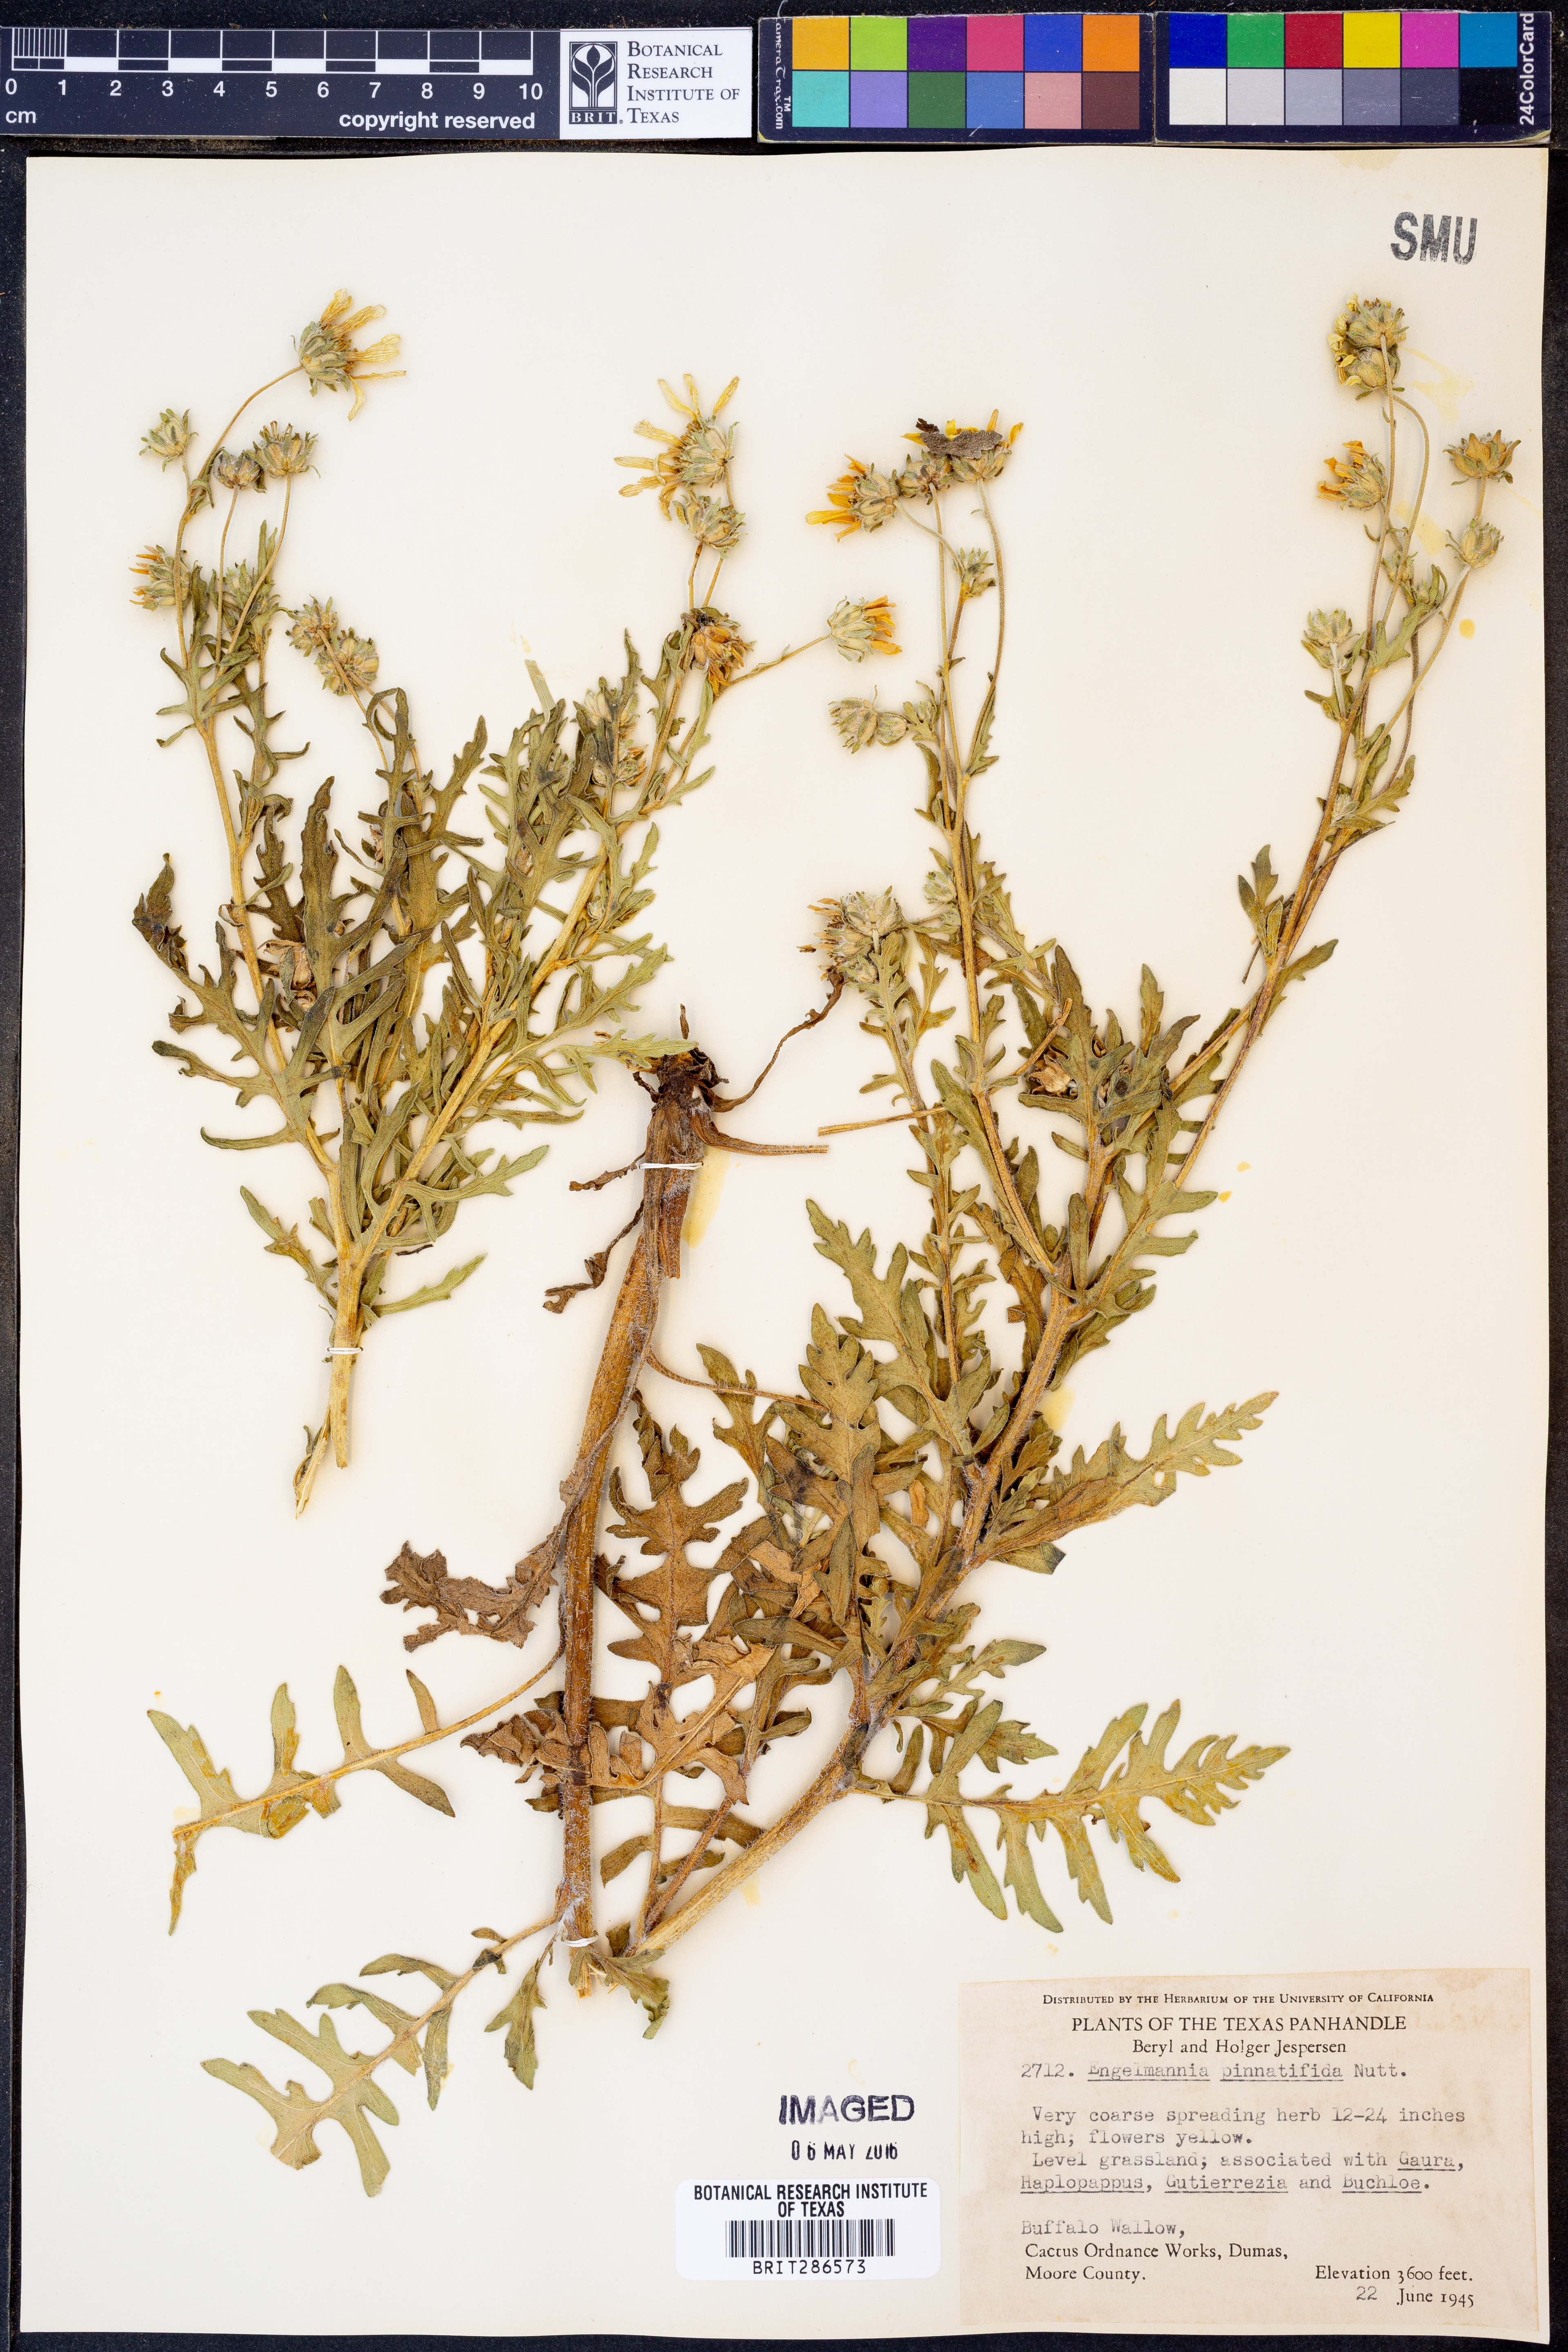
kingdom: Plantae
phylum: Tracheophyta
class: Magnoliopsida
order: Asterales
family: Asteraceae
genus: Engelmannia
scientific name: Engelmannia peristenia
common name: Engelmann's daisy
